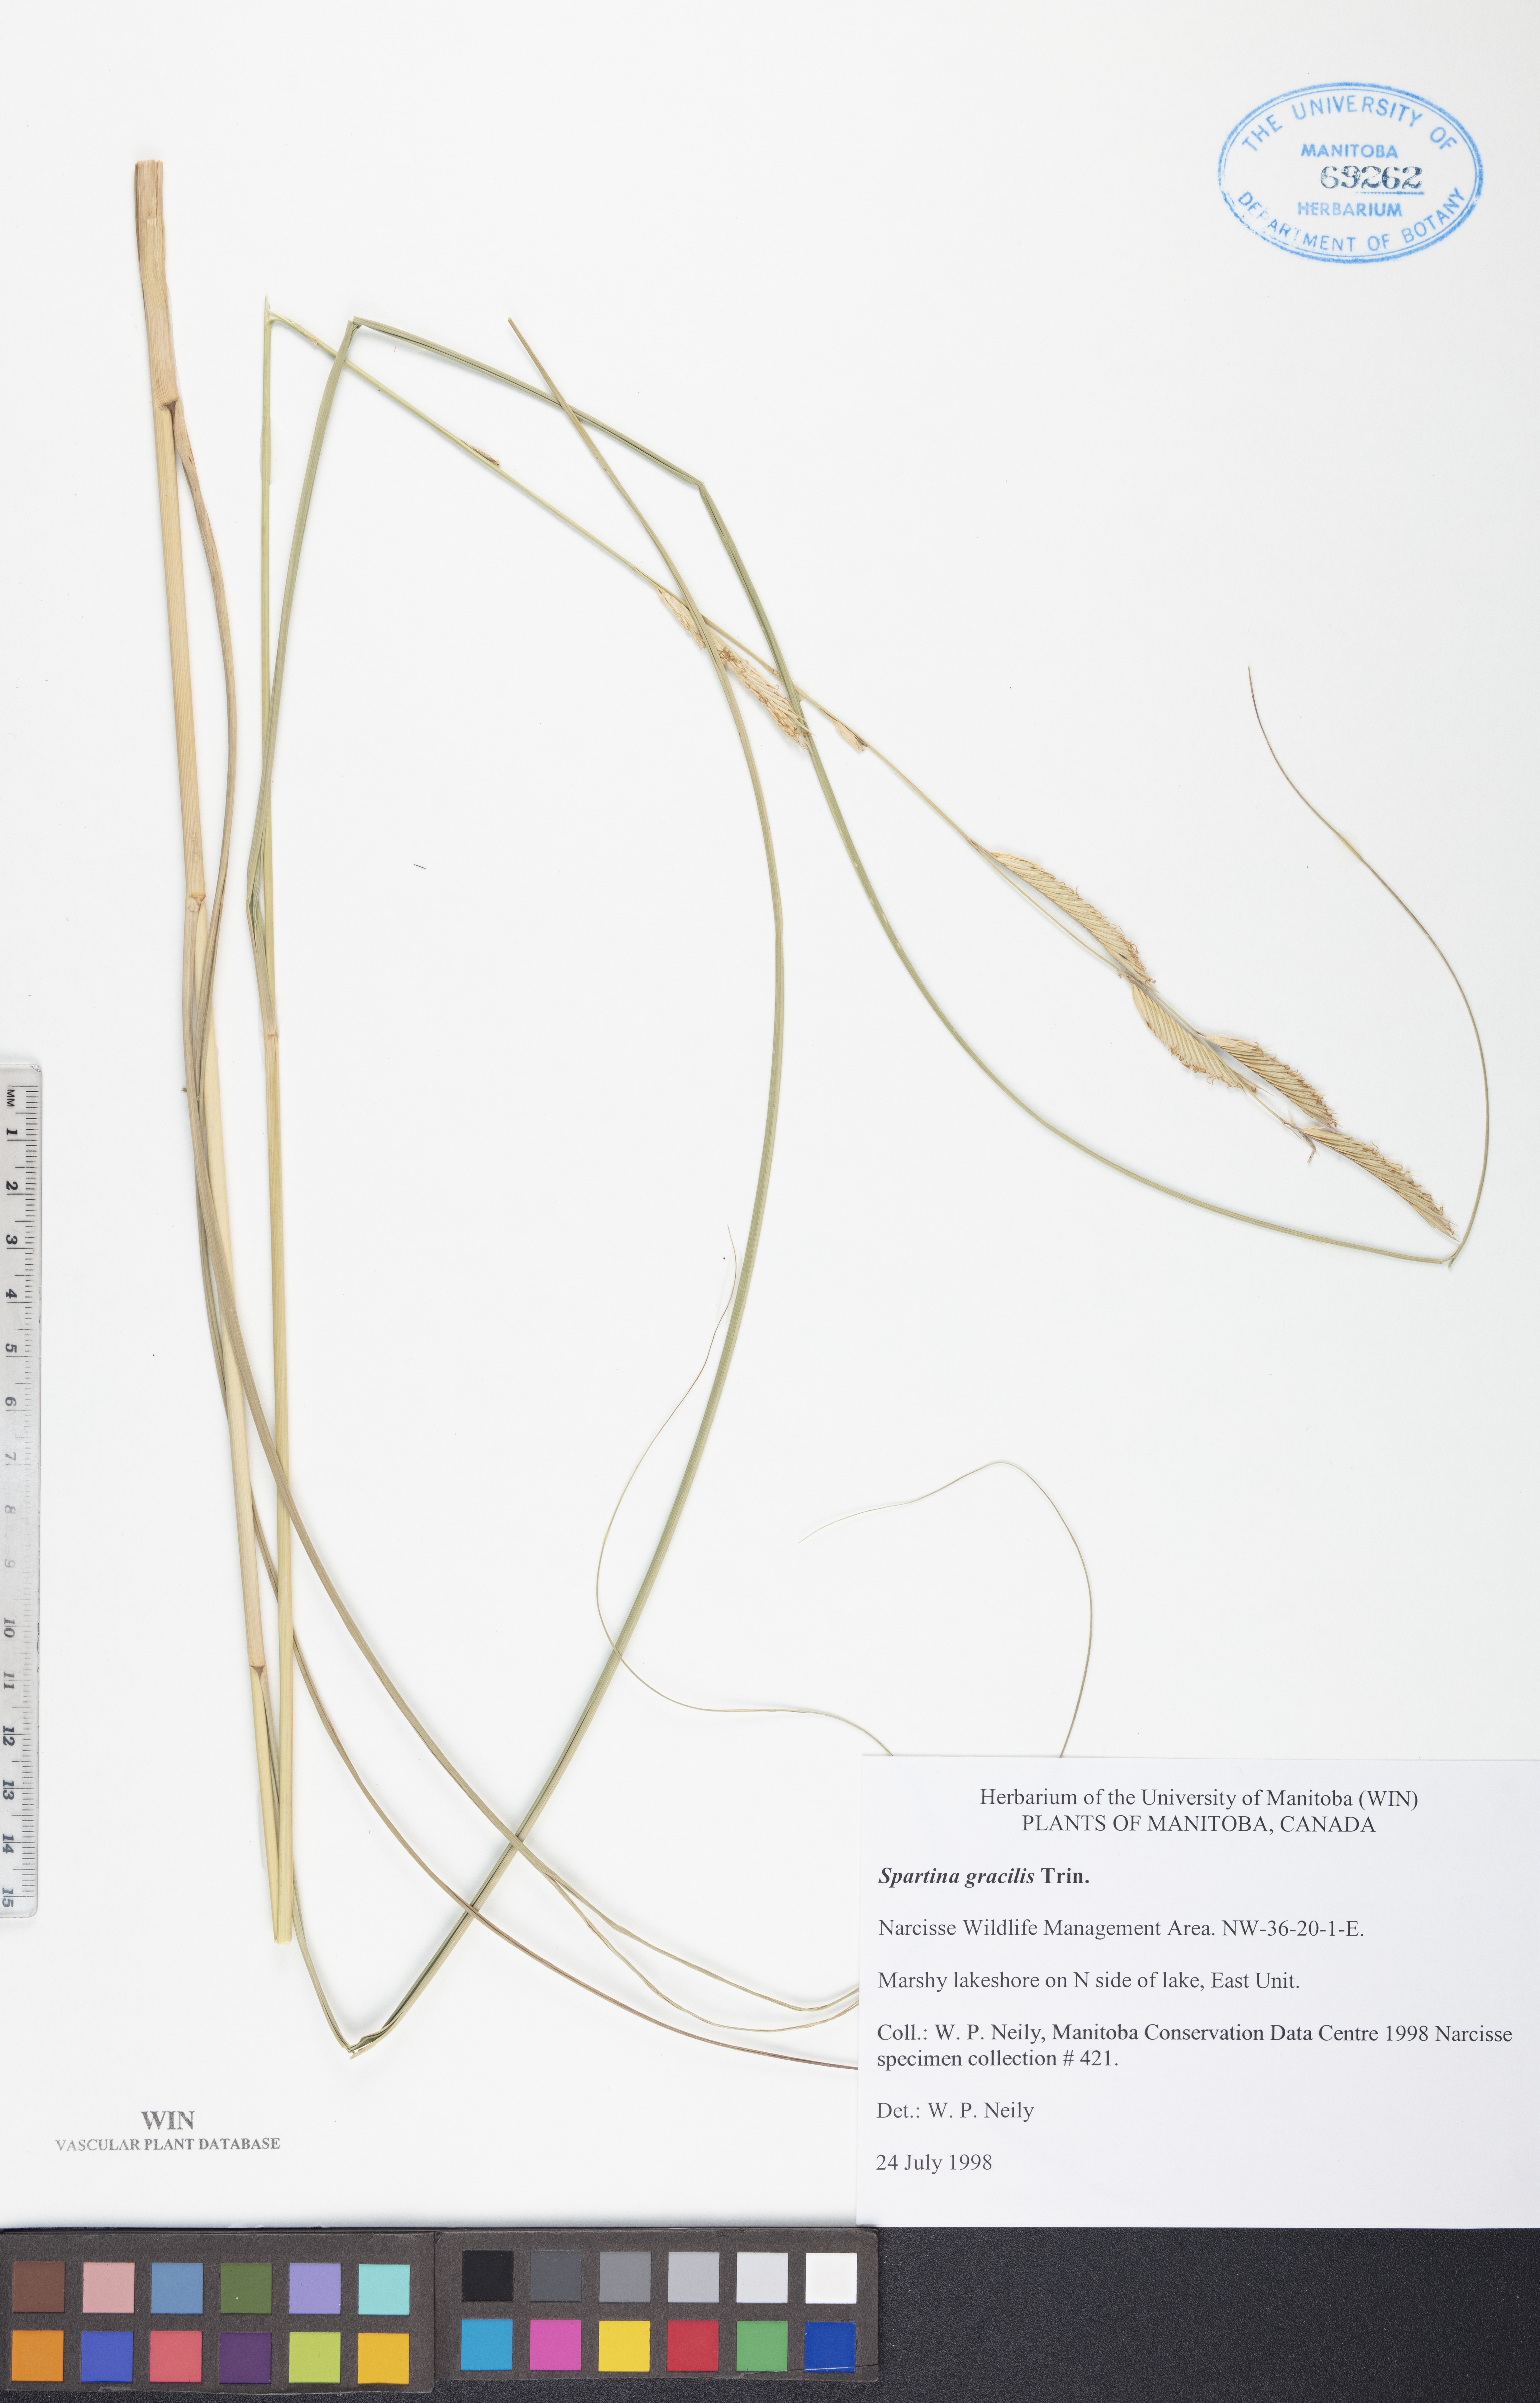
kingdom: Plantae
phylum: Tracheophyta
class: Liliopsida
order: Poales
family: Poaceae
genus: Sporobolus
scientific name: Sporobolus hookerianus
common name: Alkali cordgrass
